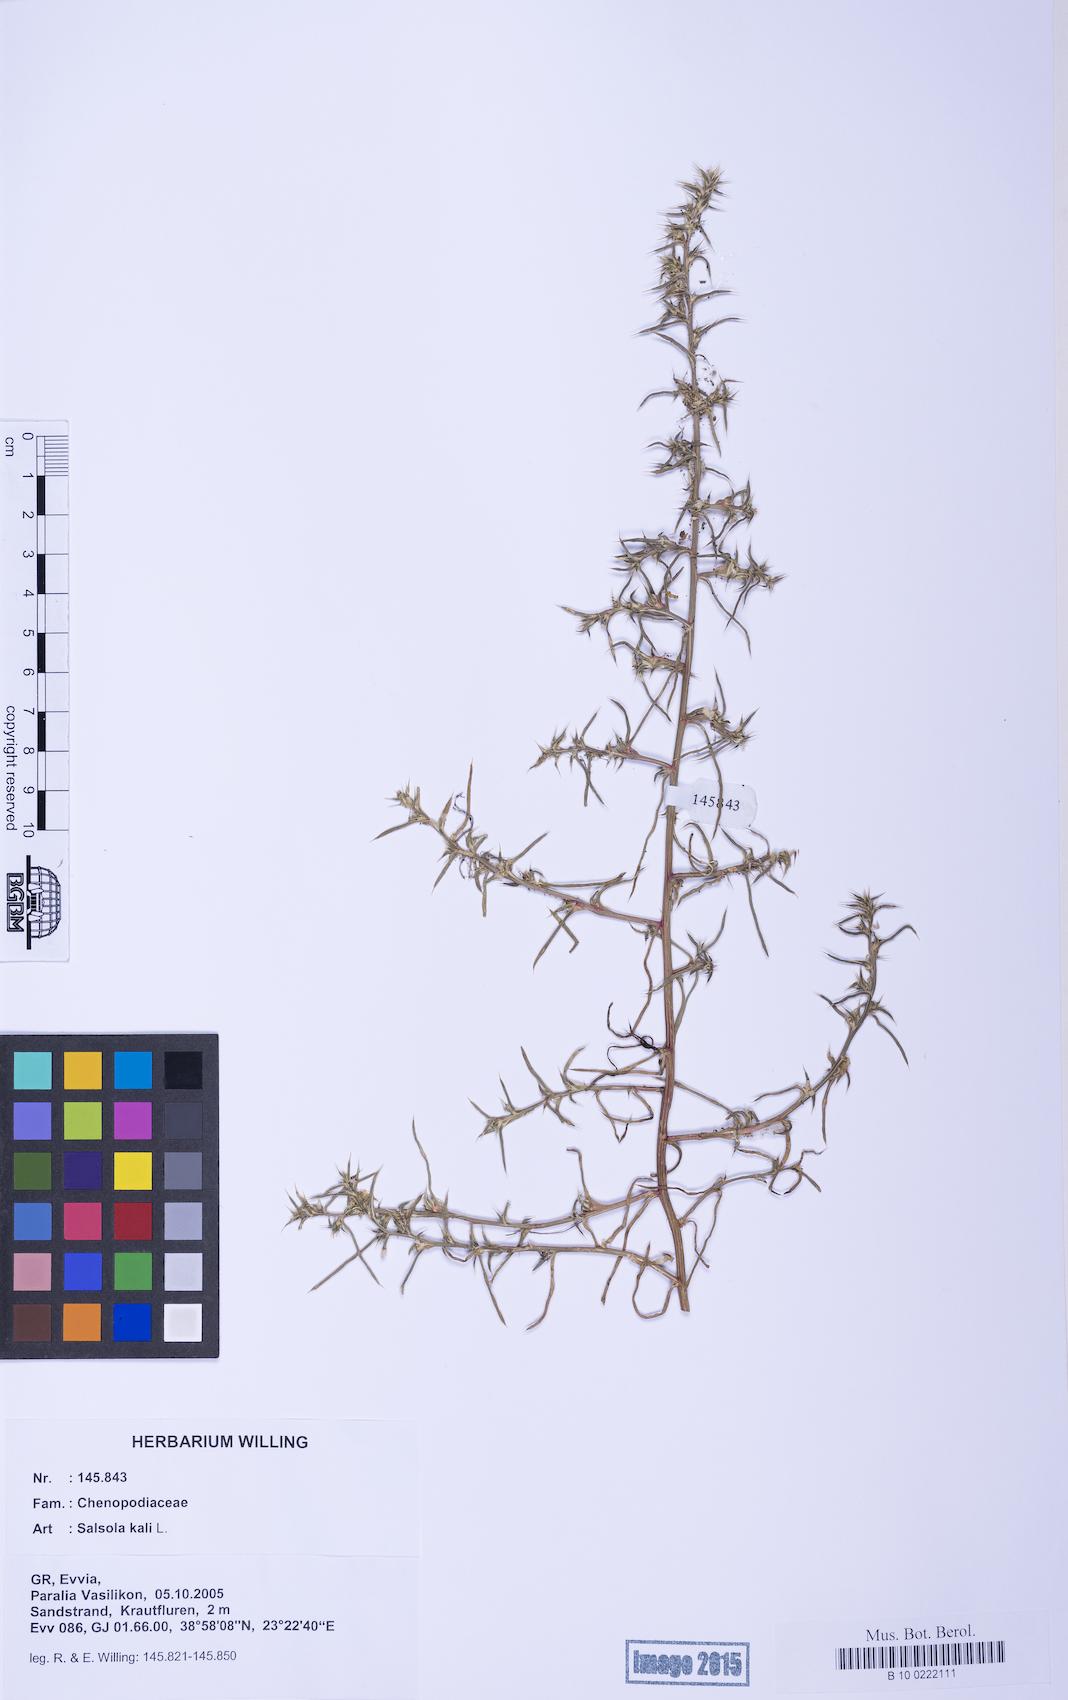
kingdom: Plantae
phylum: Tracheophyta
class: Magnoliopsida
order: Caryophyllales
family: Amaranthaceae
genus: Salsola
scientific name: Salsola kali
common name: Saltwort
